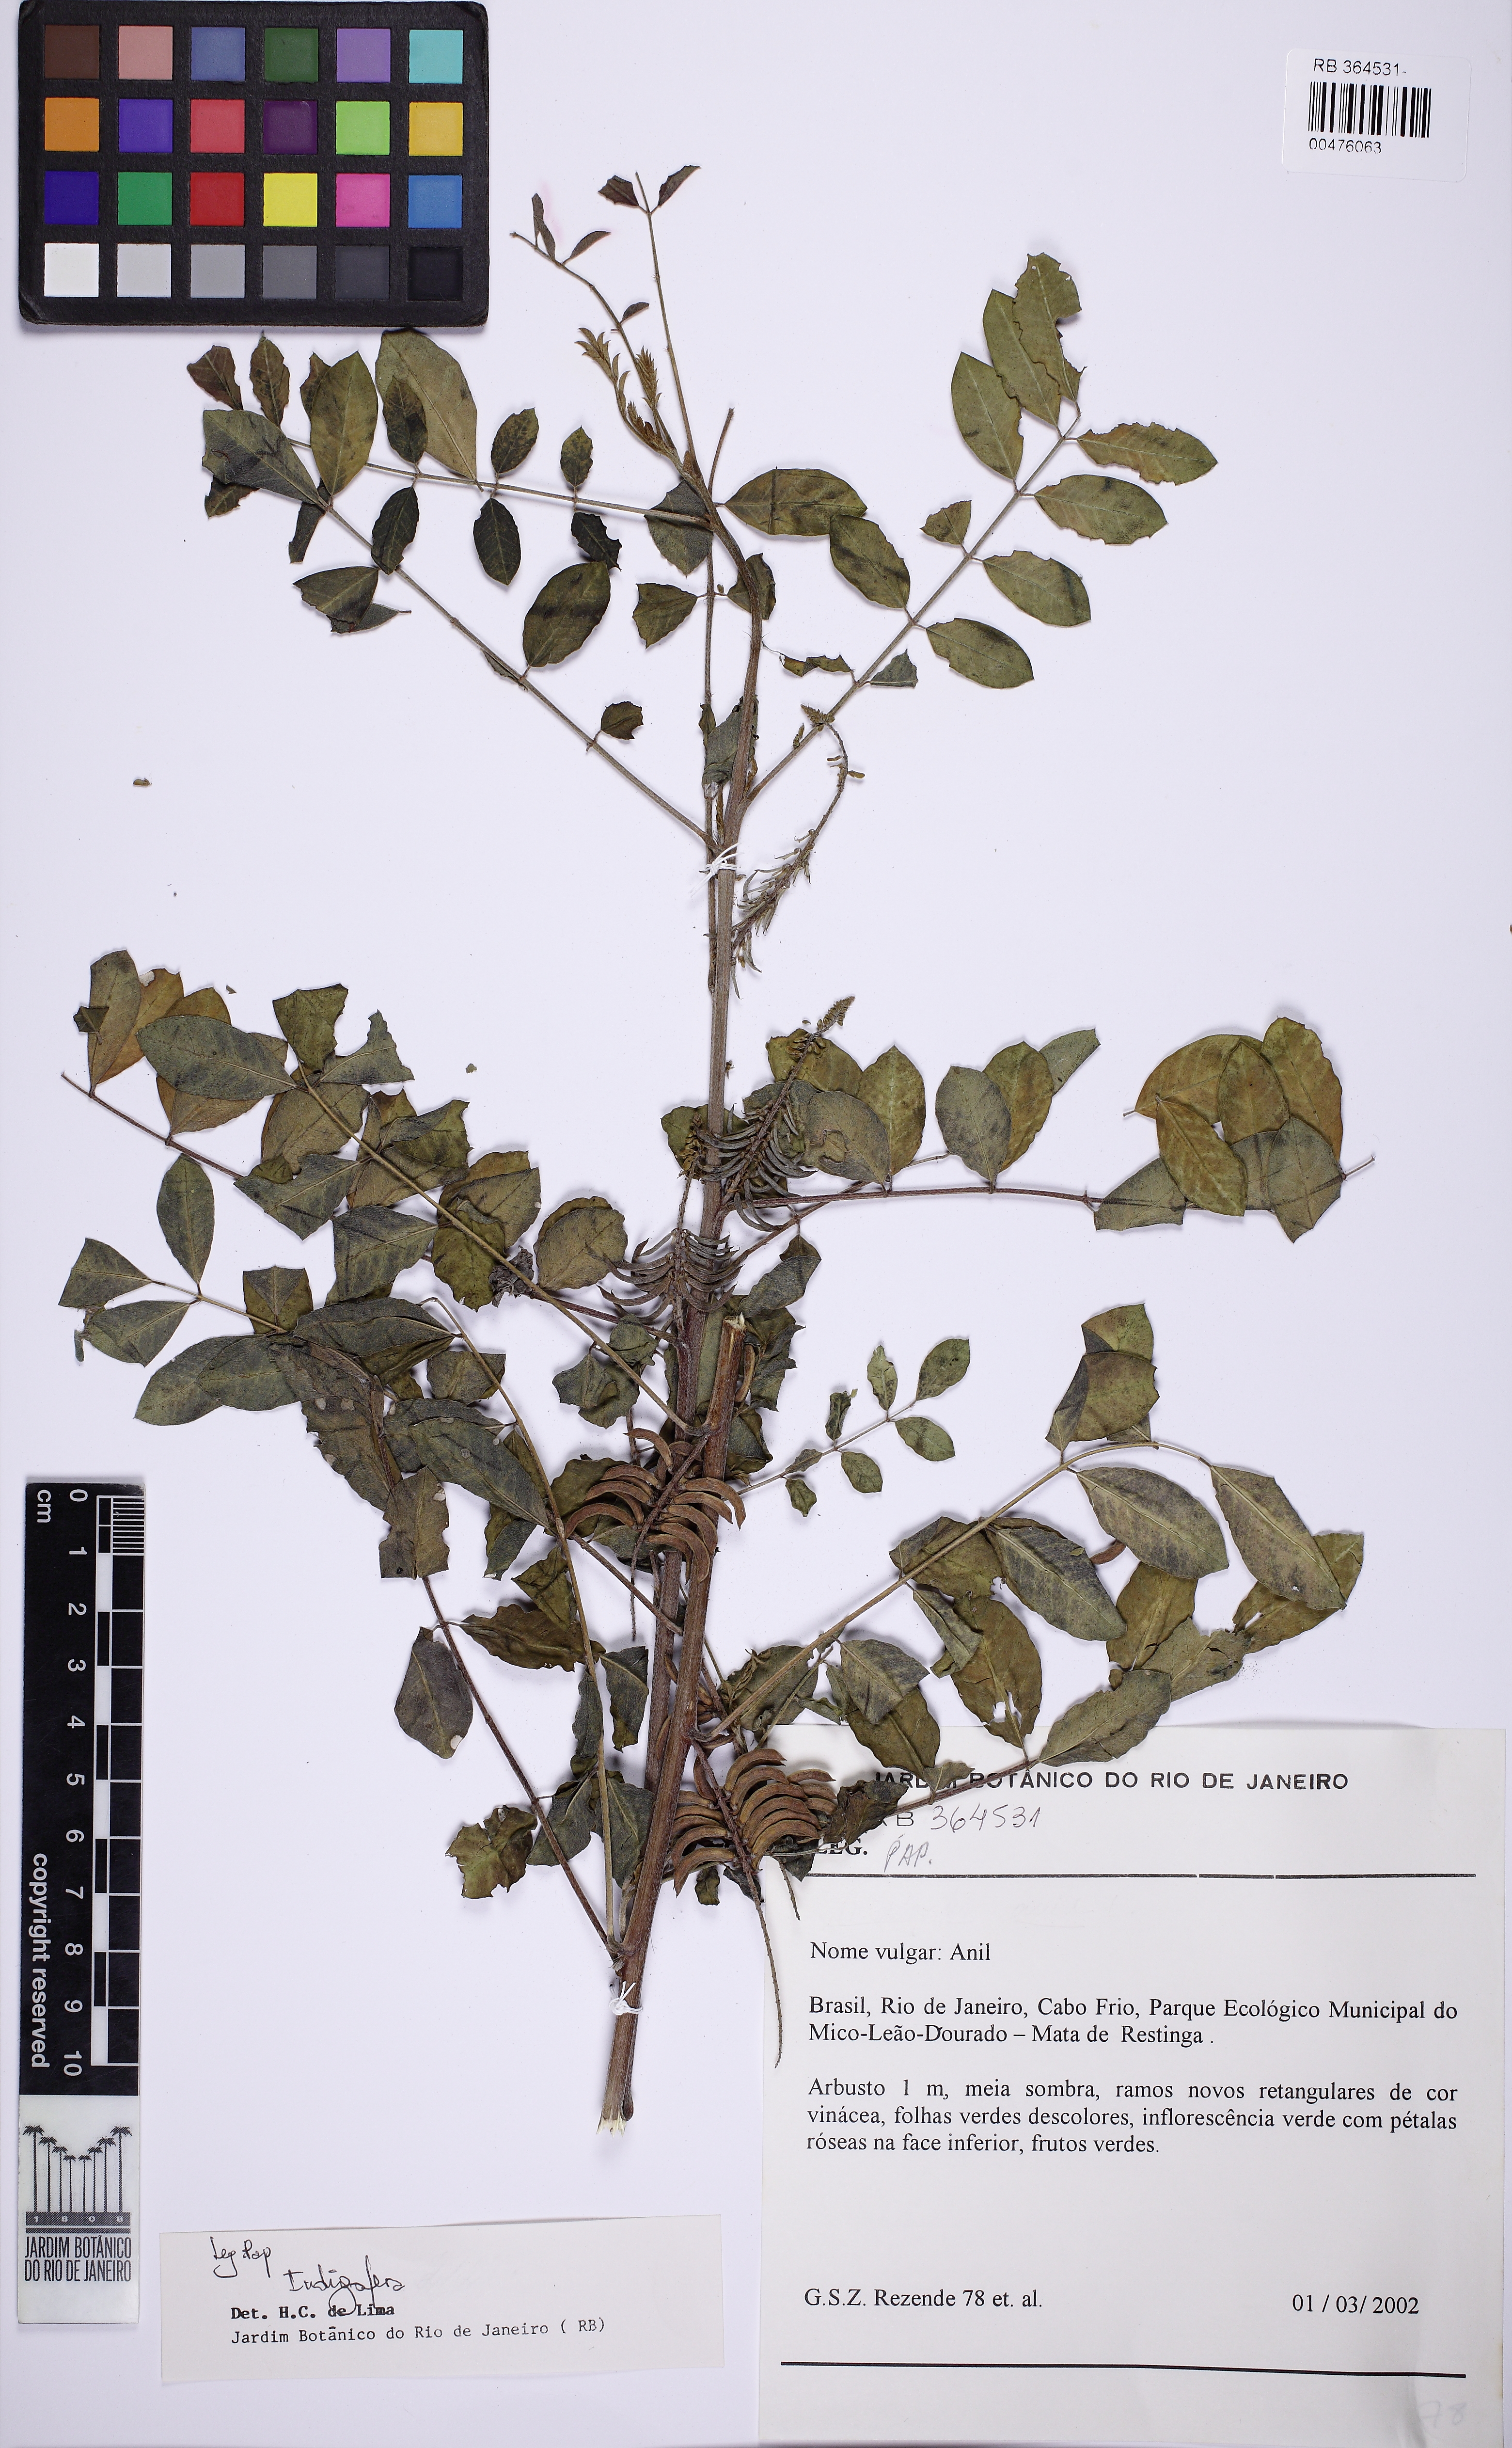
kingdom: Plantae
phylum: Tracheophyta
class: Magnoliopsida
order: Fabales
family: Fabaceae
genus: Indigofera
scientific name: Indigofera
